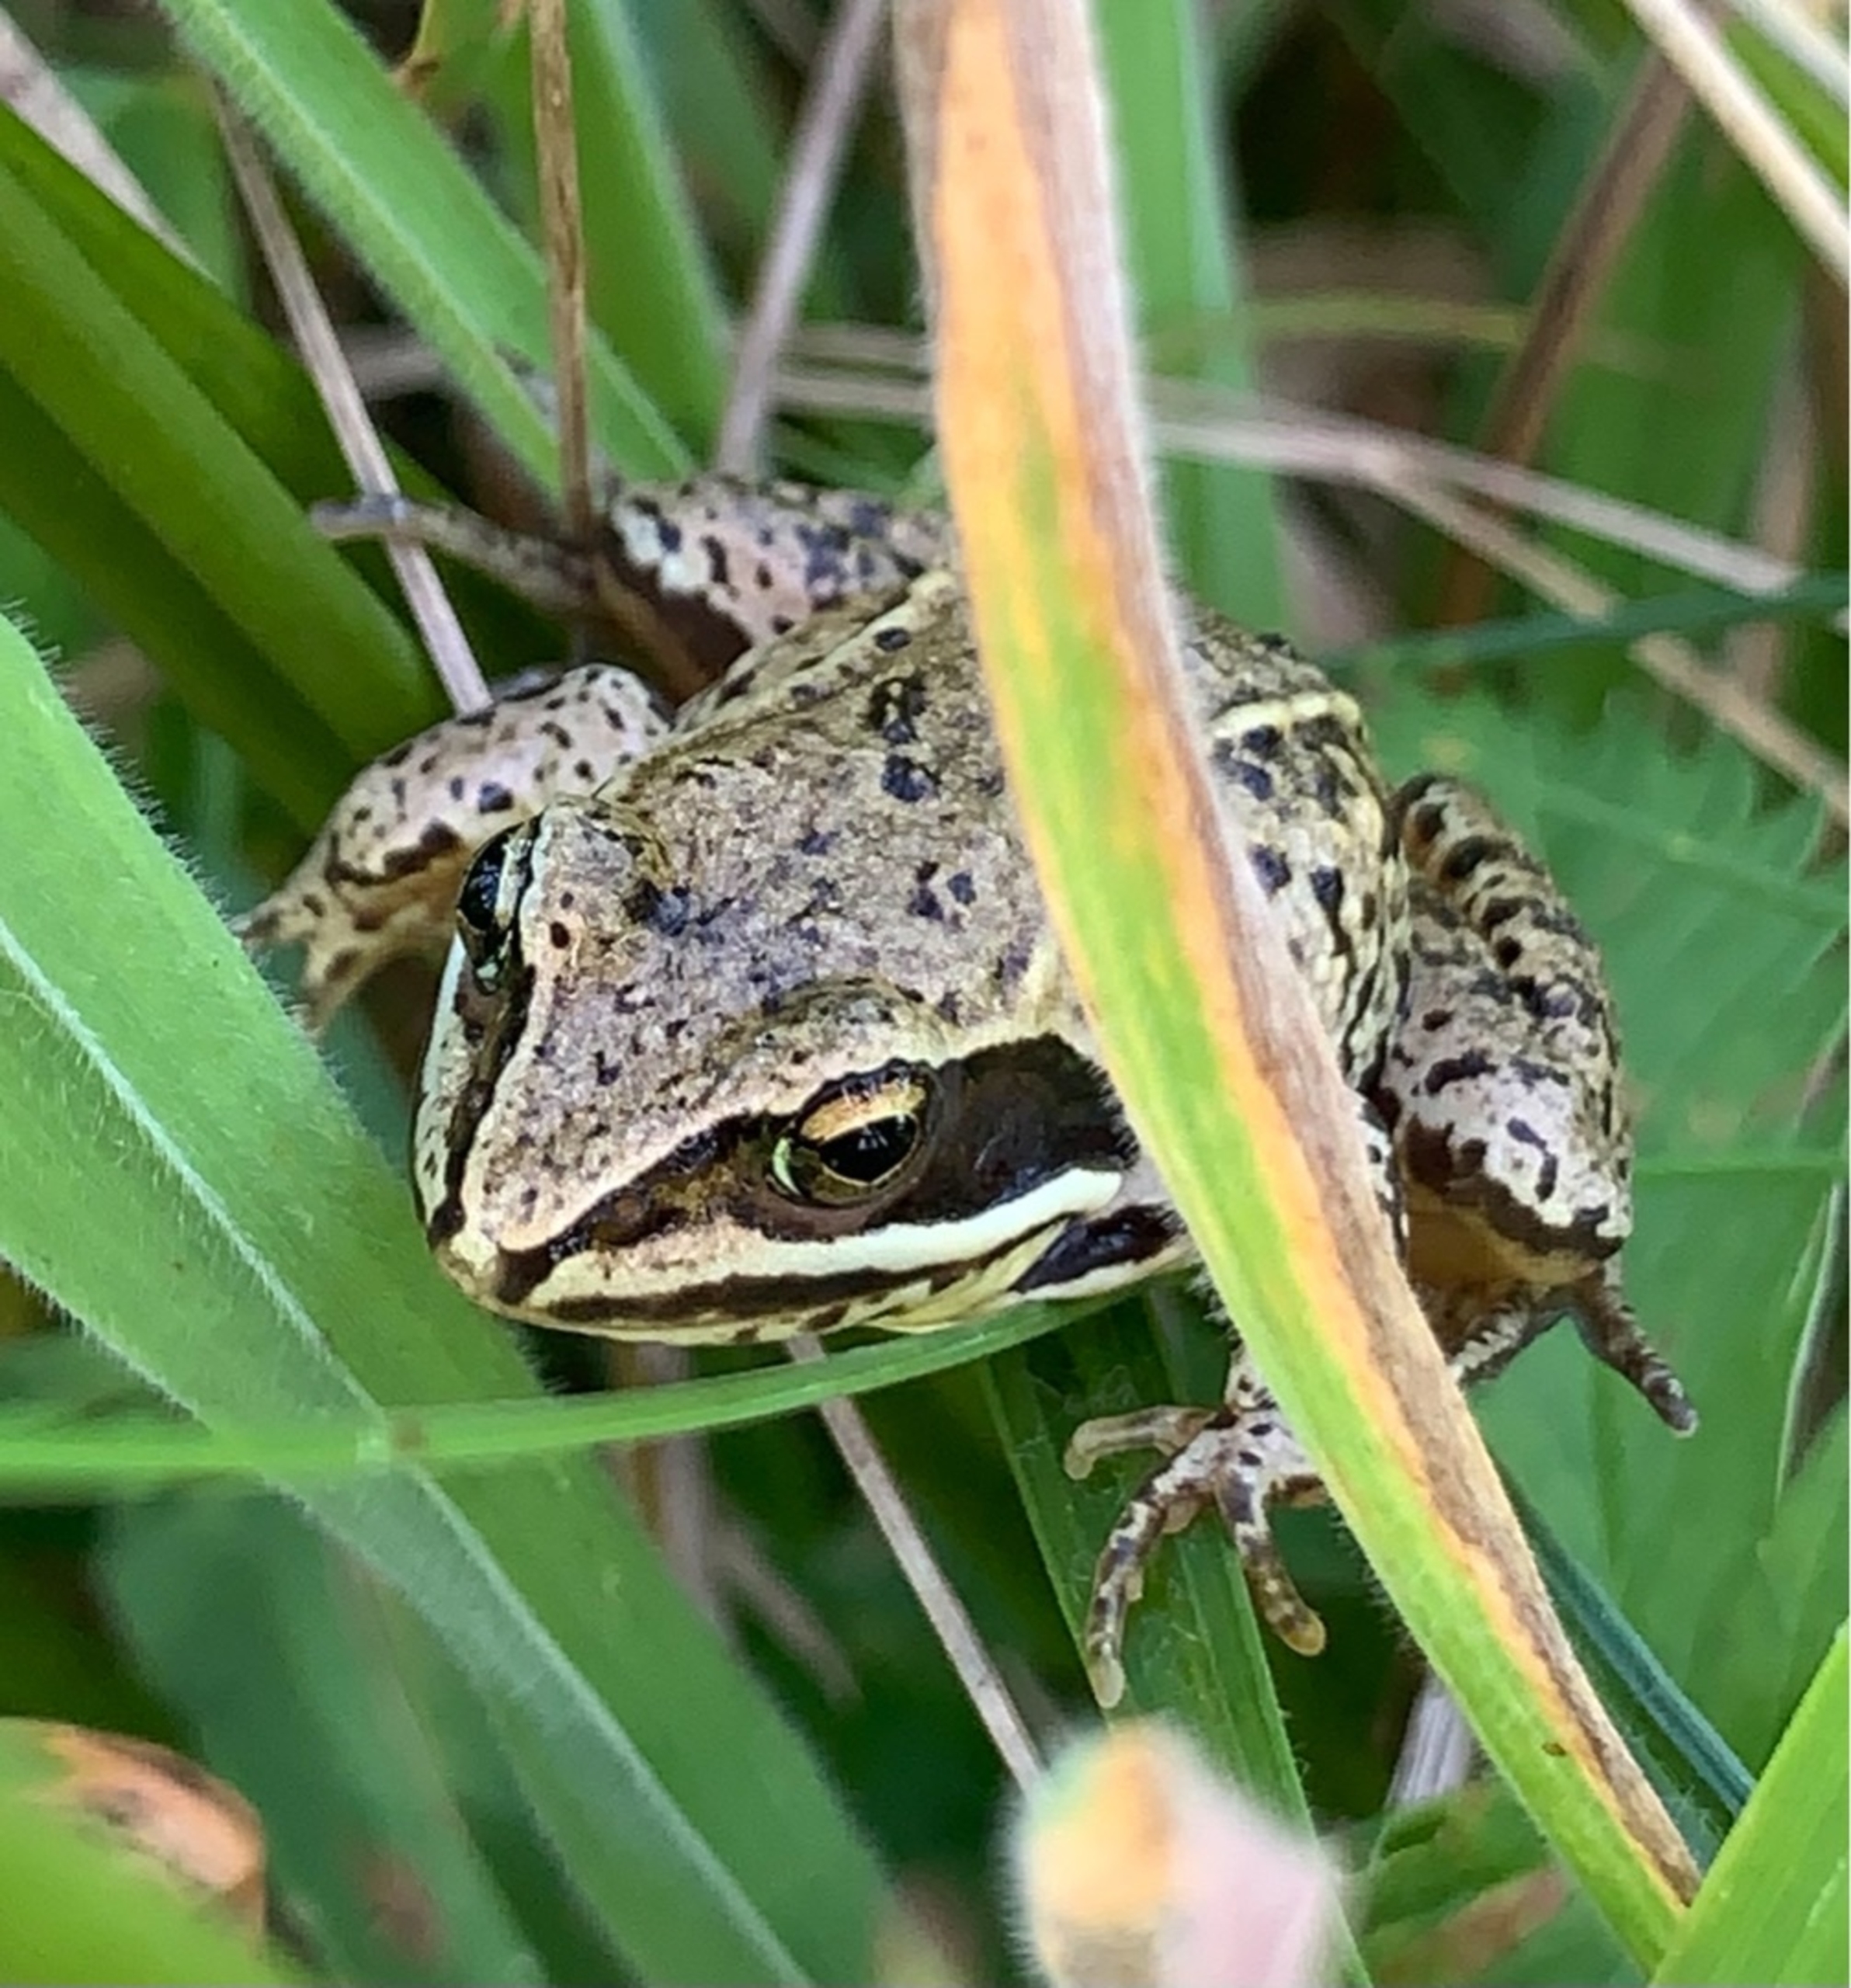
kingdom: Animalia
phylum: Chordata
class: Amphibia
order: Anura
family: Ranidae
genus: Rana
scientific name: Rana arvalis
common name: Spidssnudet frø
